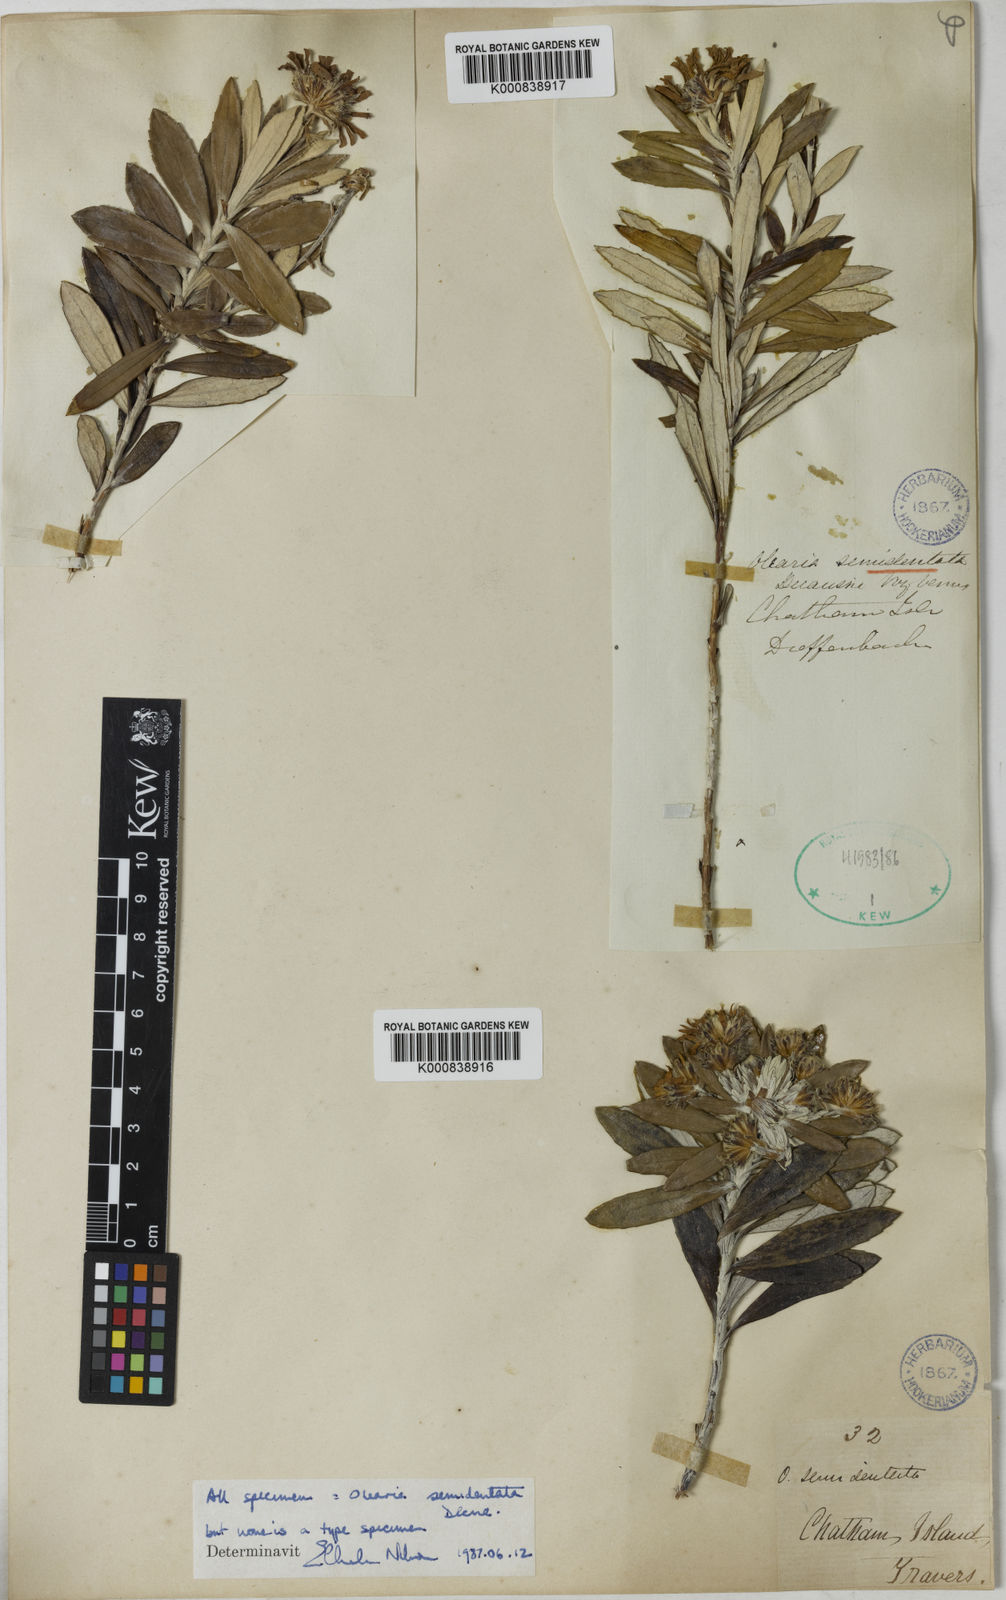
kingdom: Plantae
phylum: Tracheophyta
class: Magnoliopsida
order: Asterales
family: Asteraceae
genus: Olearia
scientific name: Olearia
